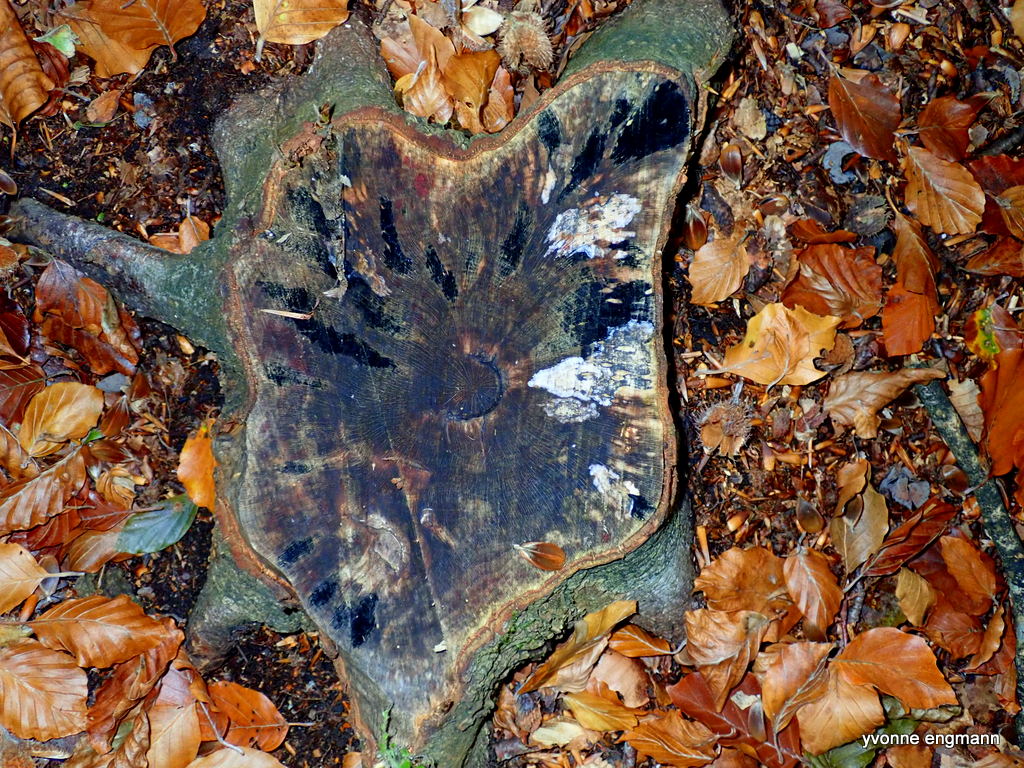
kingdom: Fungi
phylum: Ascomycota
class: Leotiomycetes
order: Helotiales
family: Helotiaceae
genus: Bispora
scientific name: Bispora pallescens
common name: måtte-snitskive
